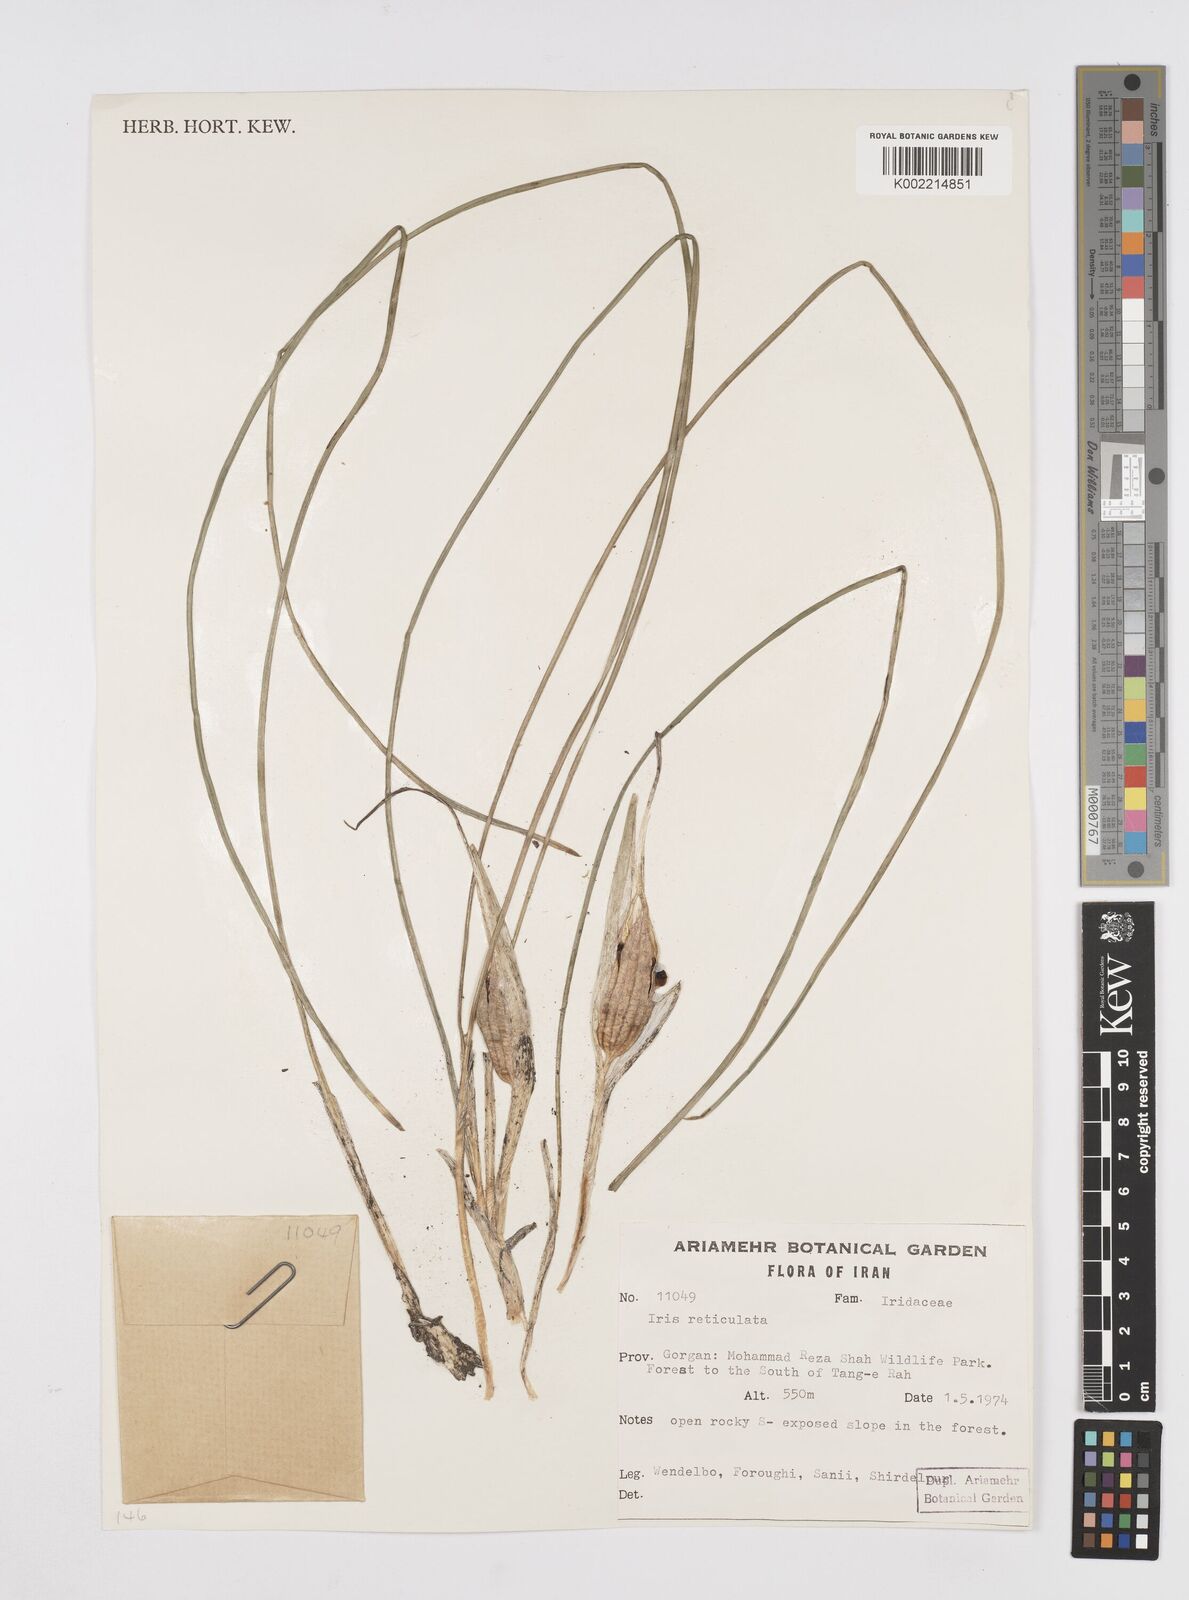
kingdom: Plantae
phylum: Tracheophyta
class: Liliopsida
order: Asparagales
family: Iridaceae
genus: Iris
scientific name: Iris reticulata
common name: Netted iris
